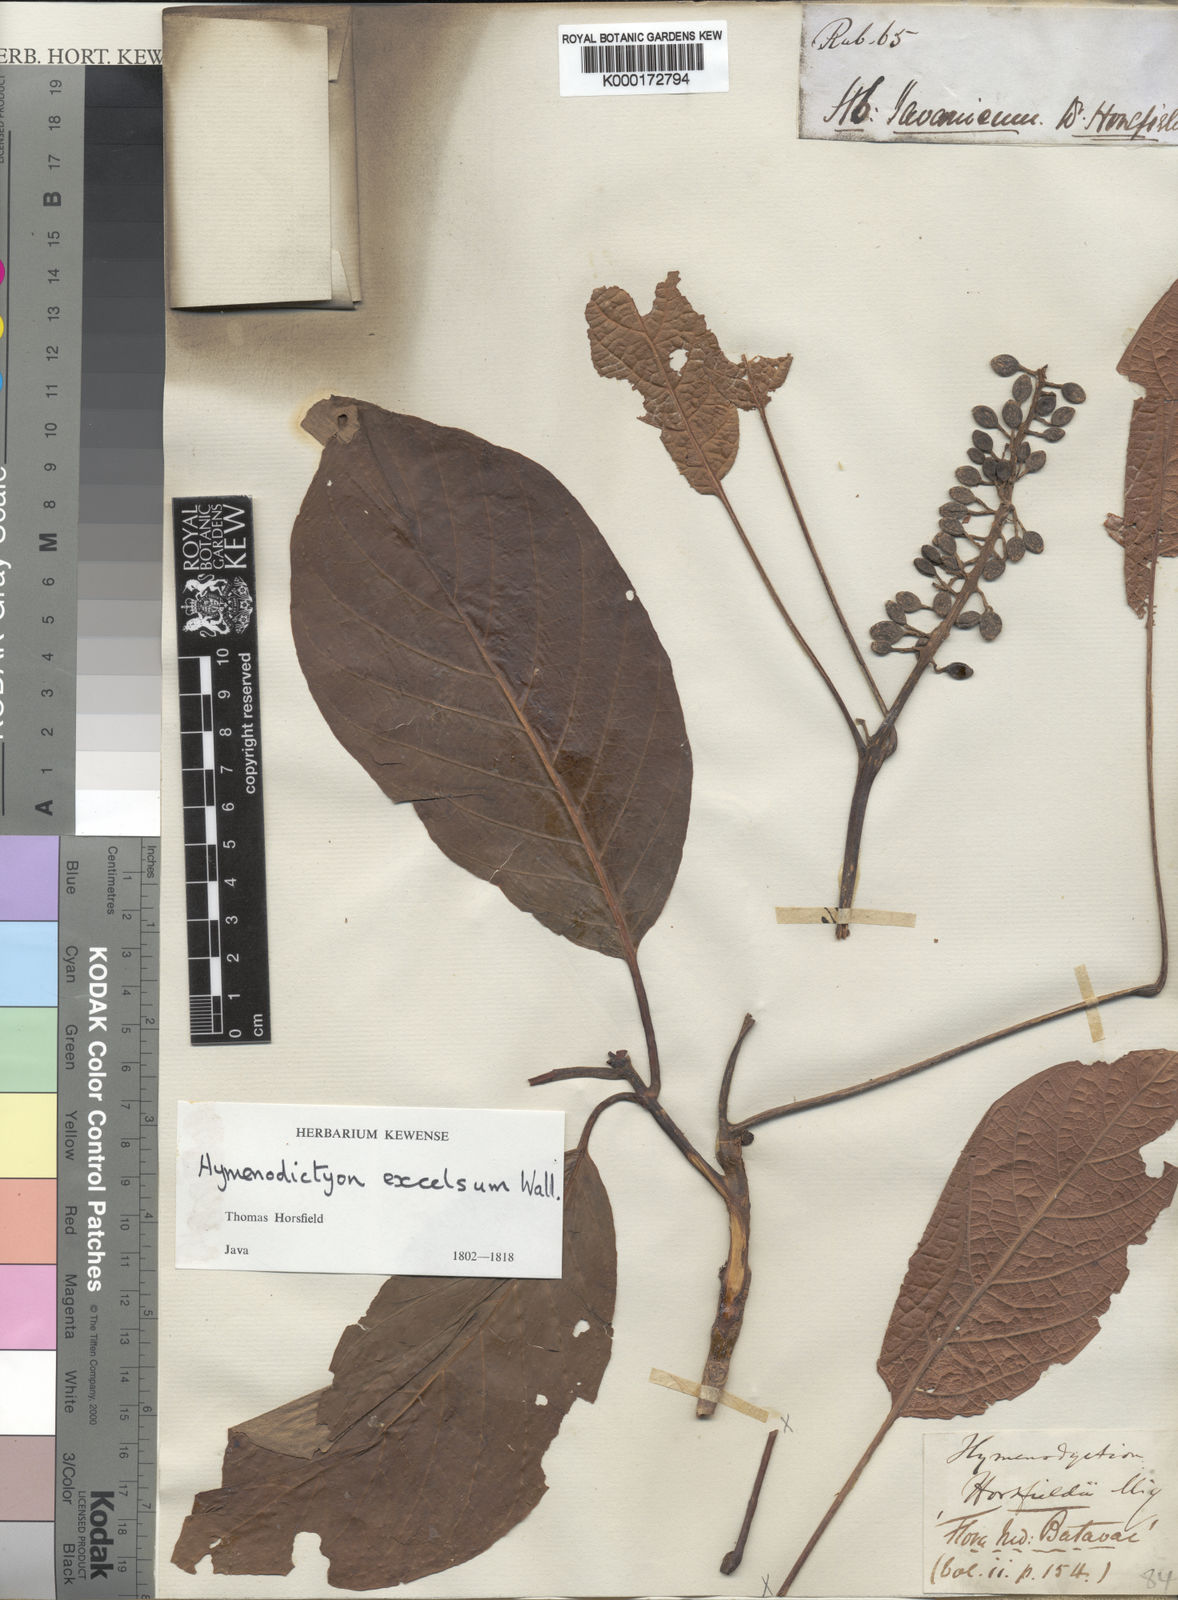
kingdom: Plantae
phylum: Tracheophyta
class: Magnoliopsida
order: Gentianales
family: Rubiaceae
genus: Hymenodictyon
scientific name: Hymenodictyon horsfieldii
